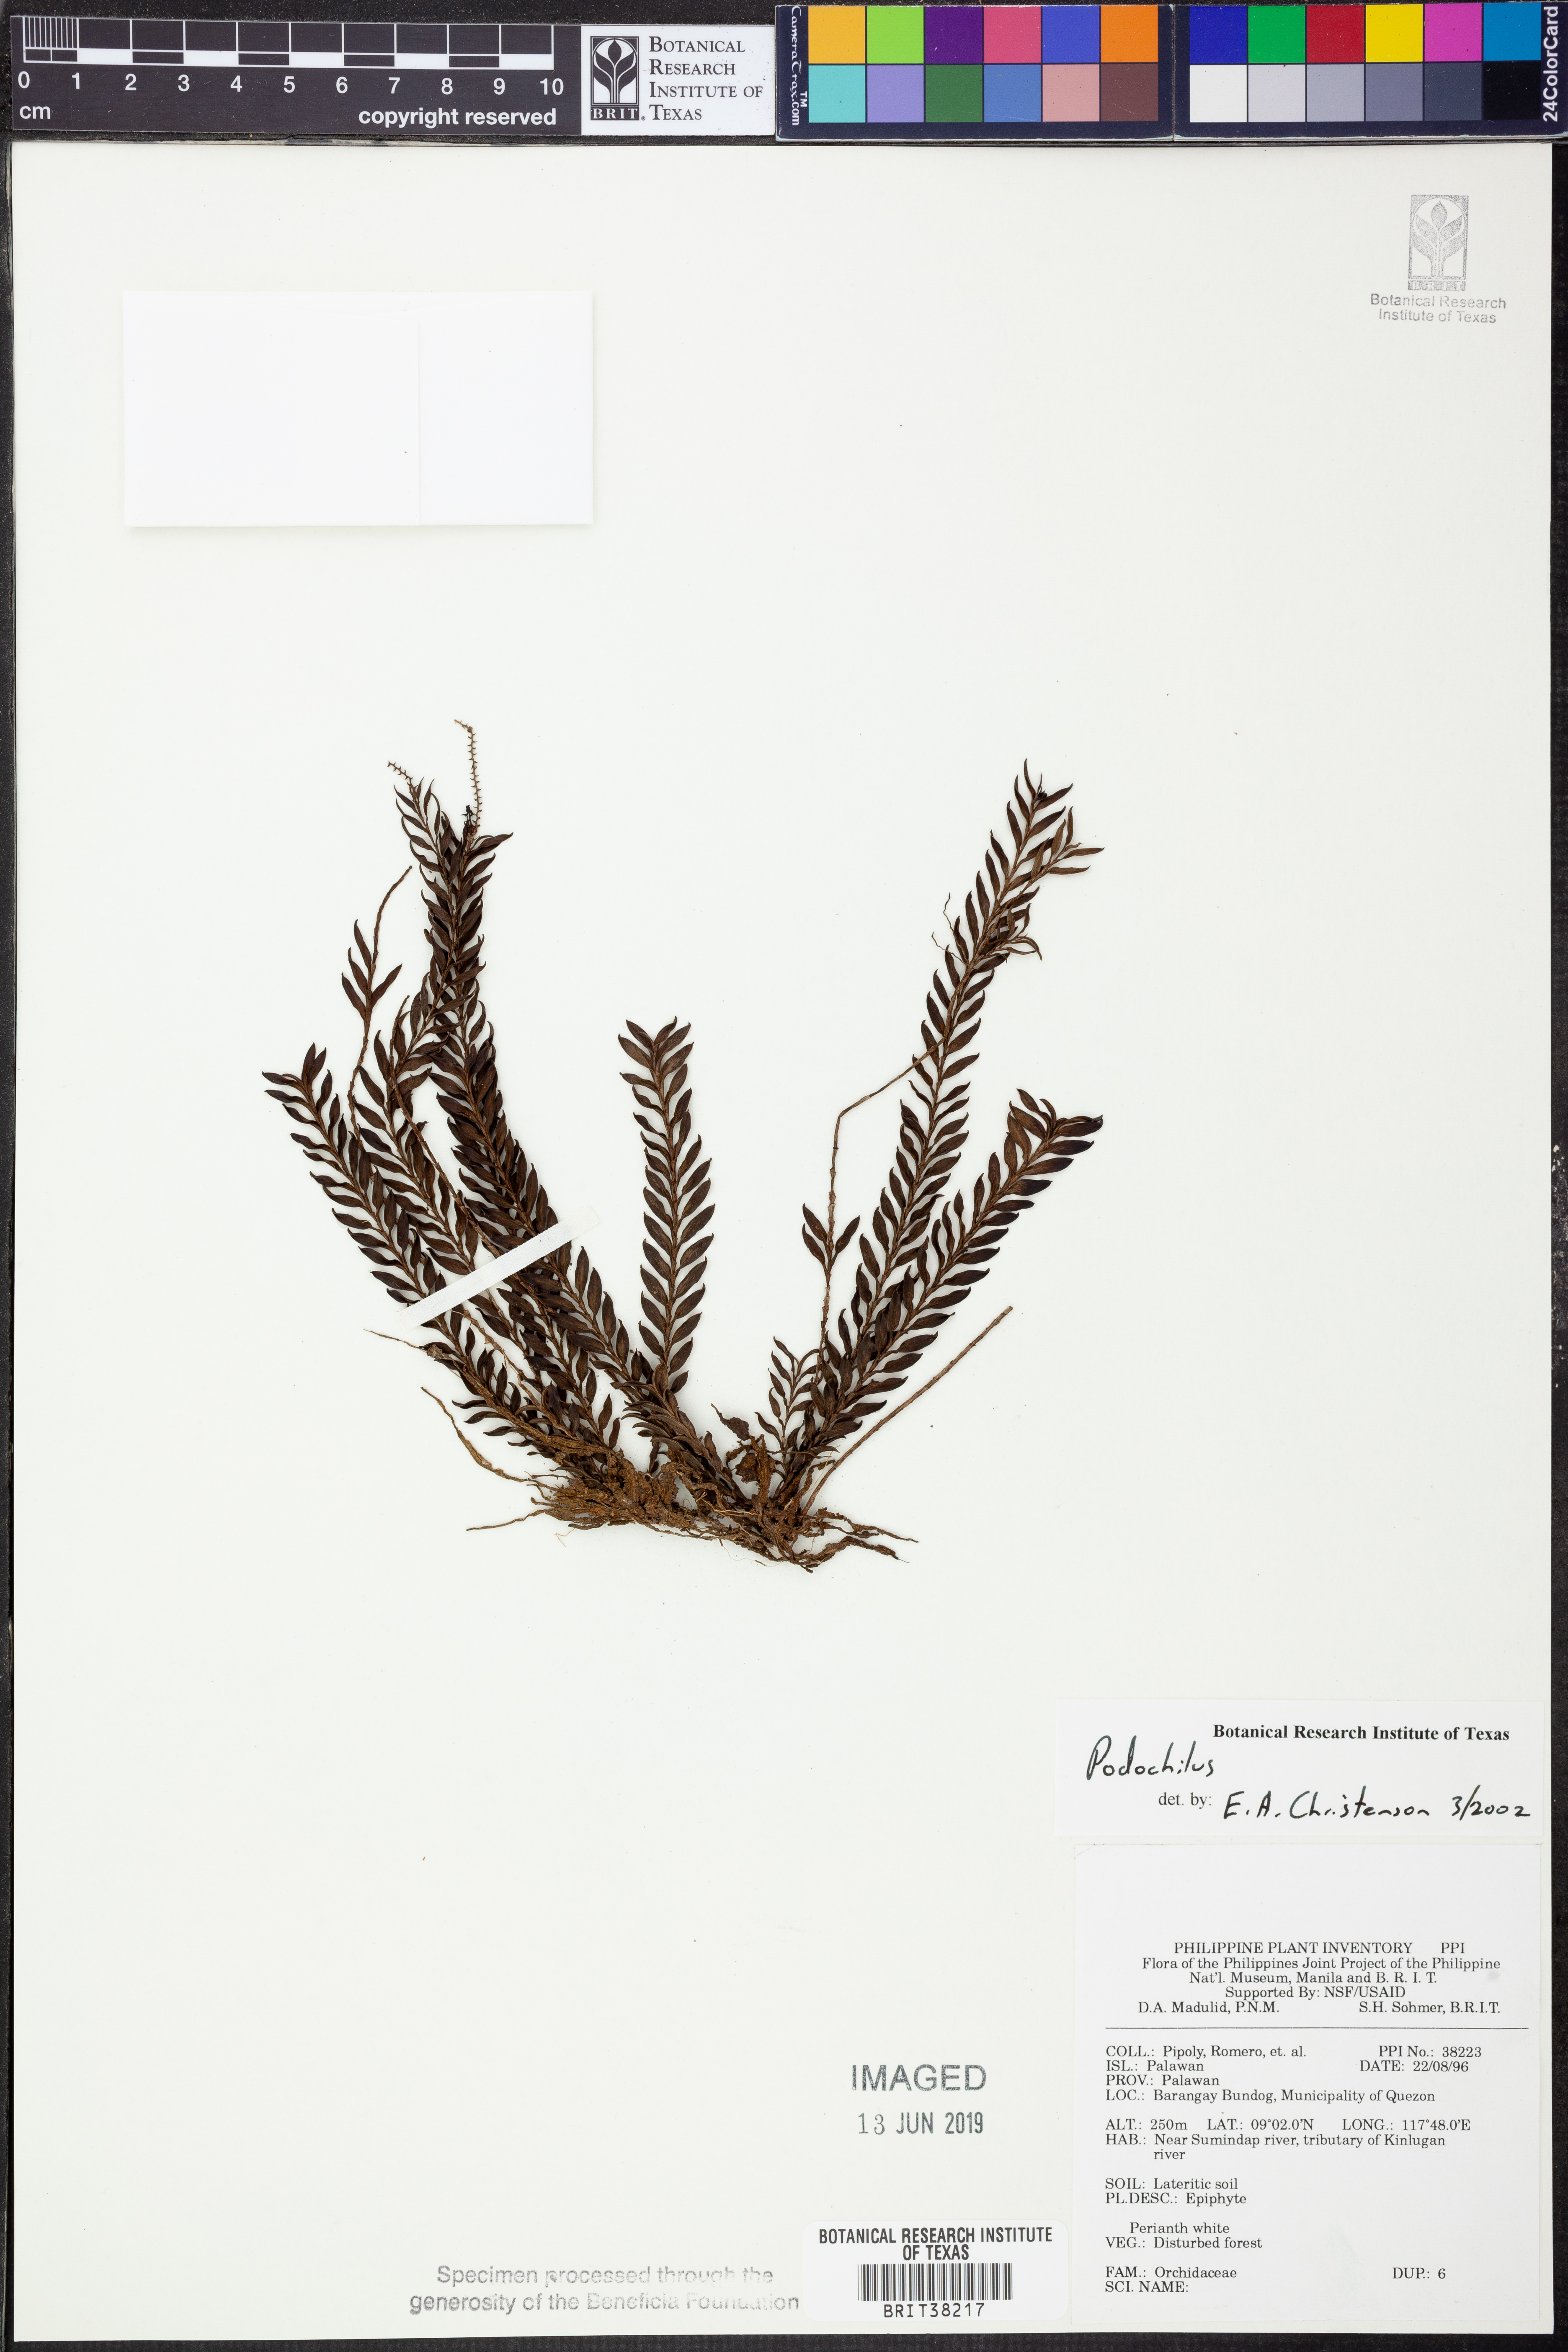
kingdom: Plantae
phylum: Tracheophyta
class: Liliopsida
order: Asparagales
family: Orchidaceae
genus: Podochilus
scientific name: Podochilus
